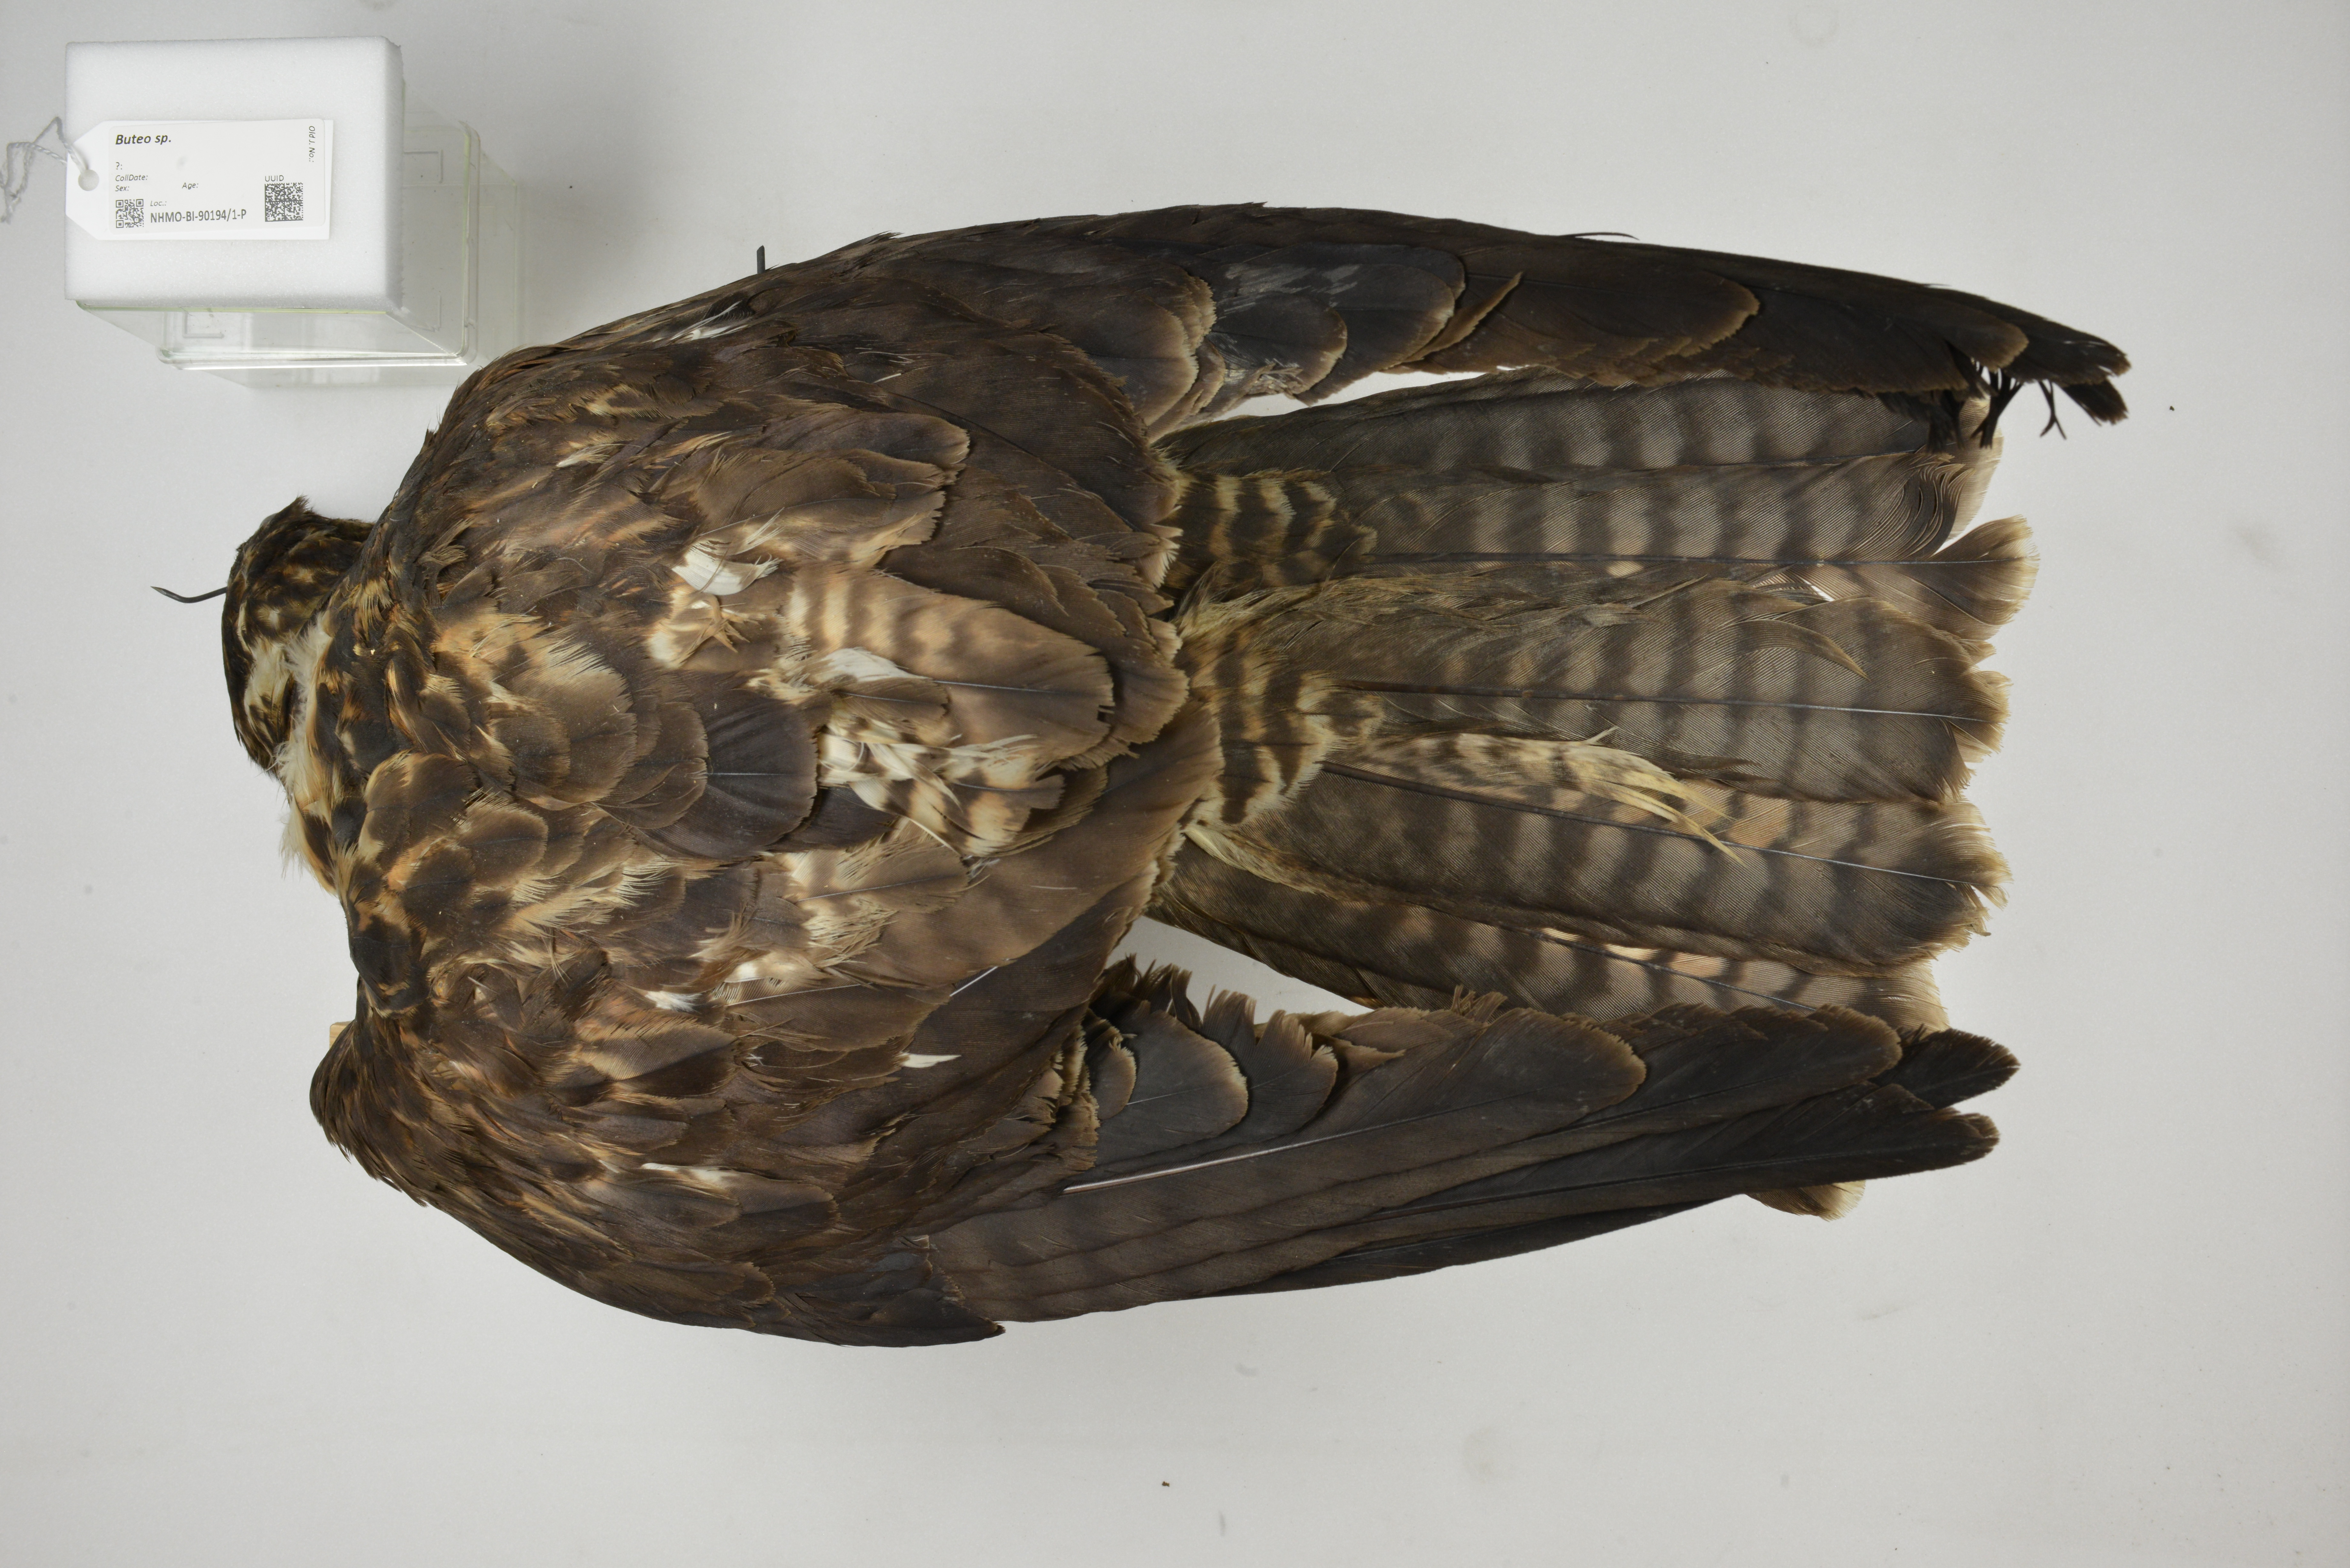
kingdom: Animalia
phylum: Chordata
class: Aves
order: Accipitriformes
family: Accipitridae
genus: Buteo
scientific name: Buteo
